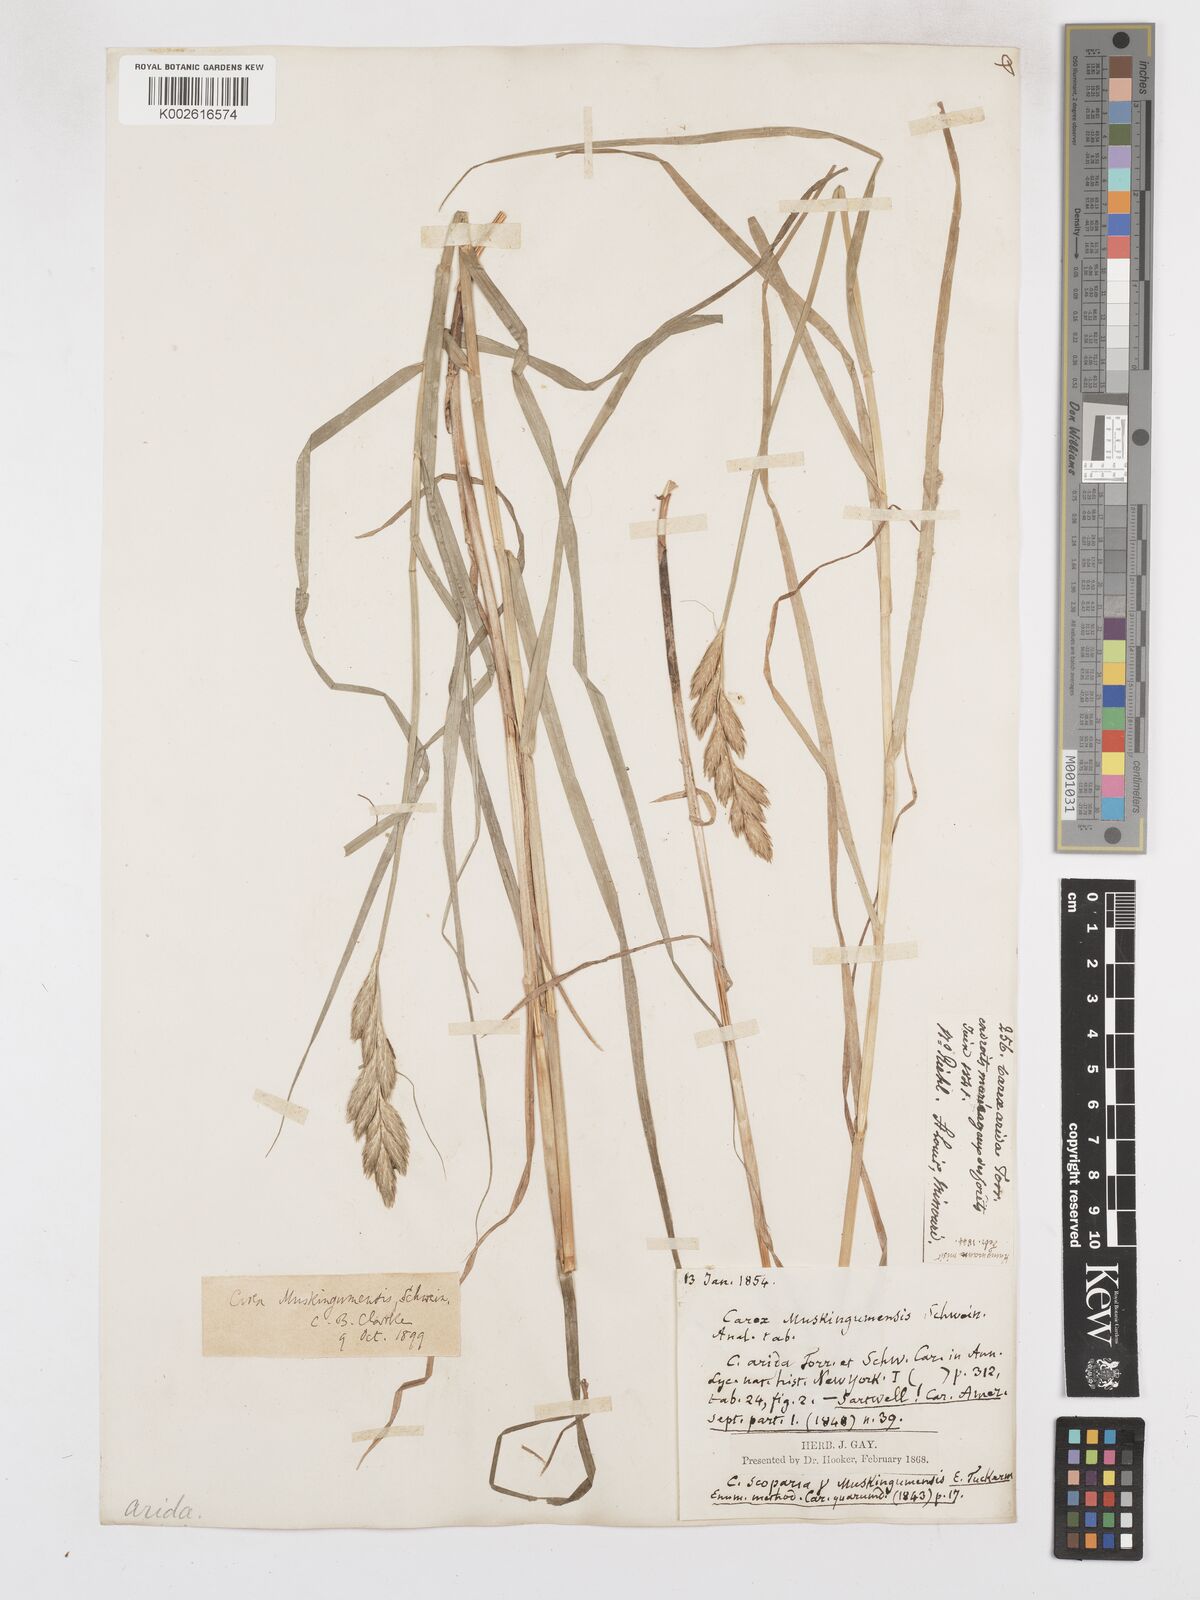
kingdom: Plantae
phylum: Tracheophyta
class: Liliopsida
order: Poales
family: Cyperaceae
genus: Carex
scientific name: Carex muskingumensis
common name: Muskingum sedge
